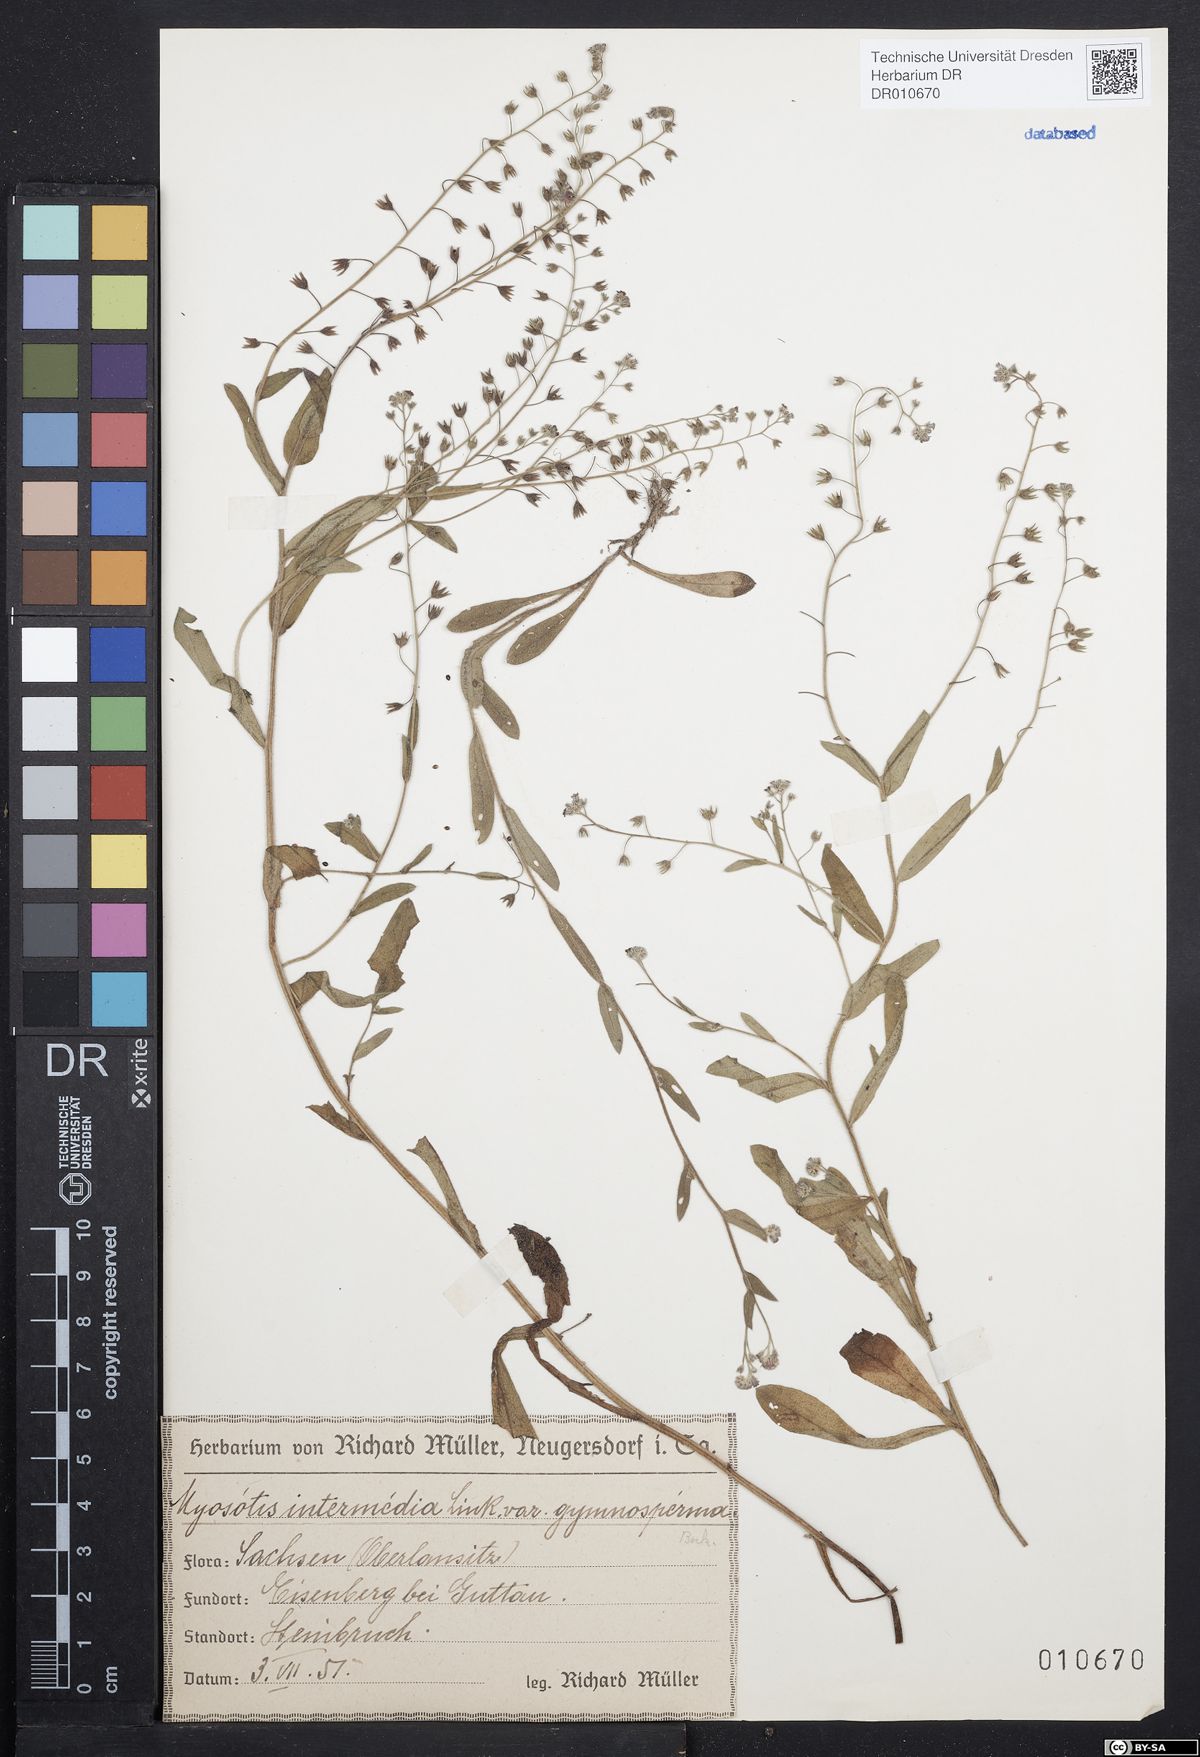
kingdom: Plantae
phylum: Tracheophyta
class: Magnoliopsida
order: Boraginales
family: Boraginaceae
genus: Myosotis
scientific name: Myosotis arvensis
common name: Field forget-me-not
